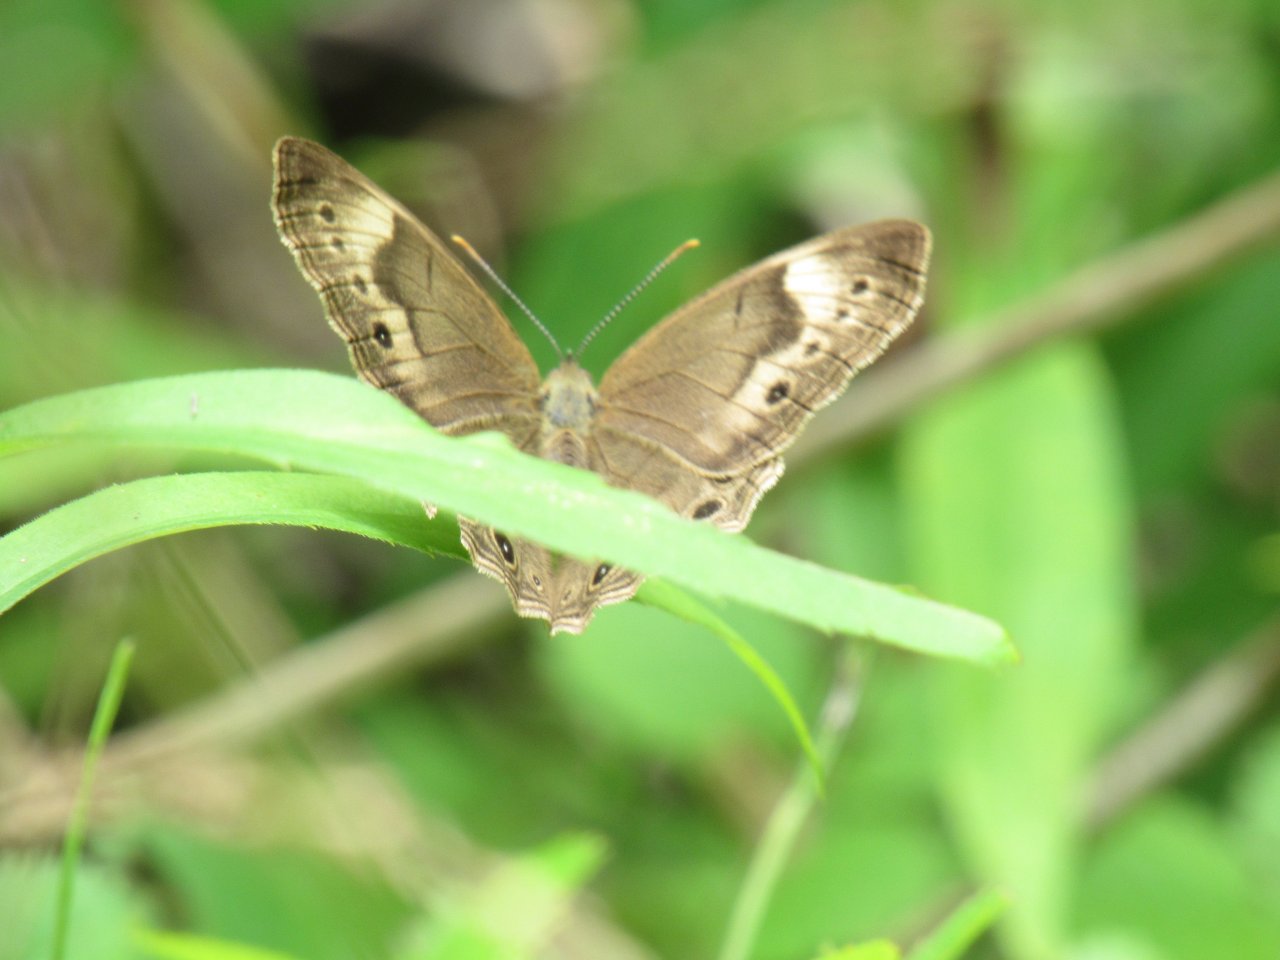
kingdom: Animalia
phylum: Arthropoda
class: Insecta
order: Lepidoptera
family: Nymphalidae
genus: Lethe
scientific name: Lethe eurydice
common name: Appalachian Eyed Brown
